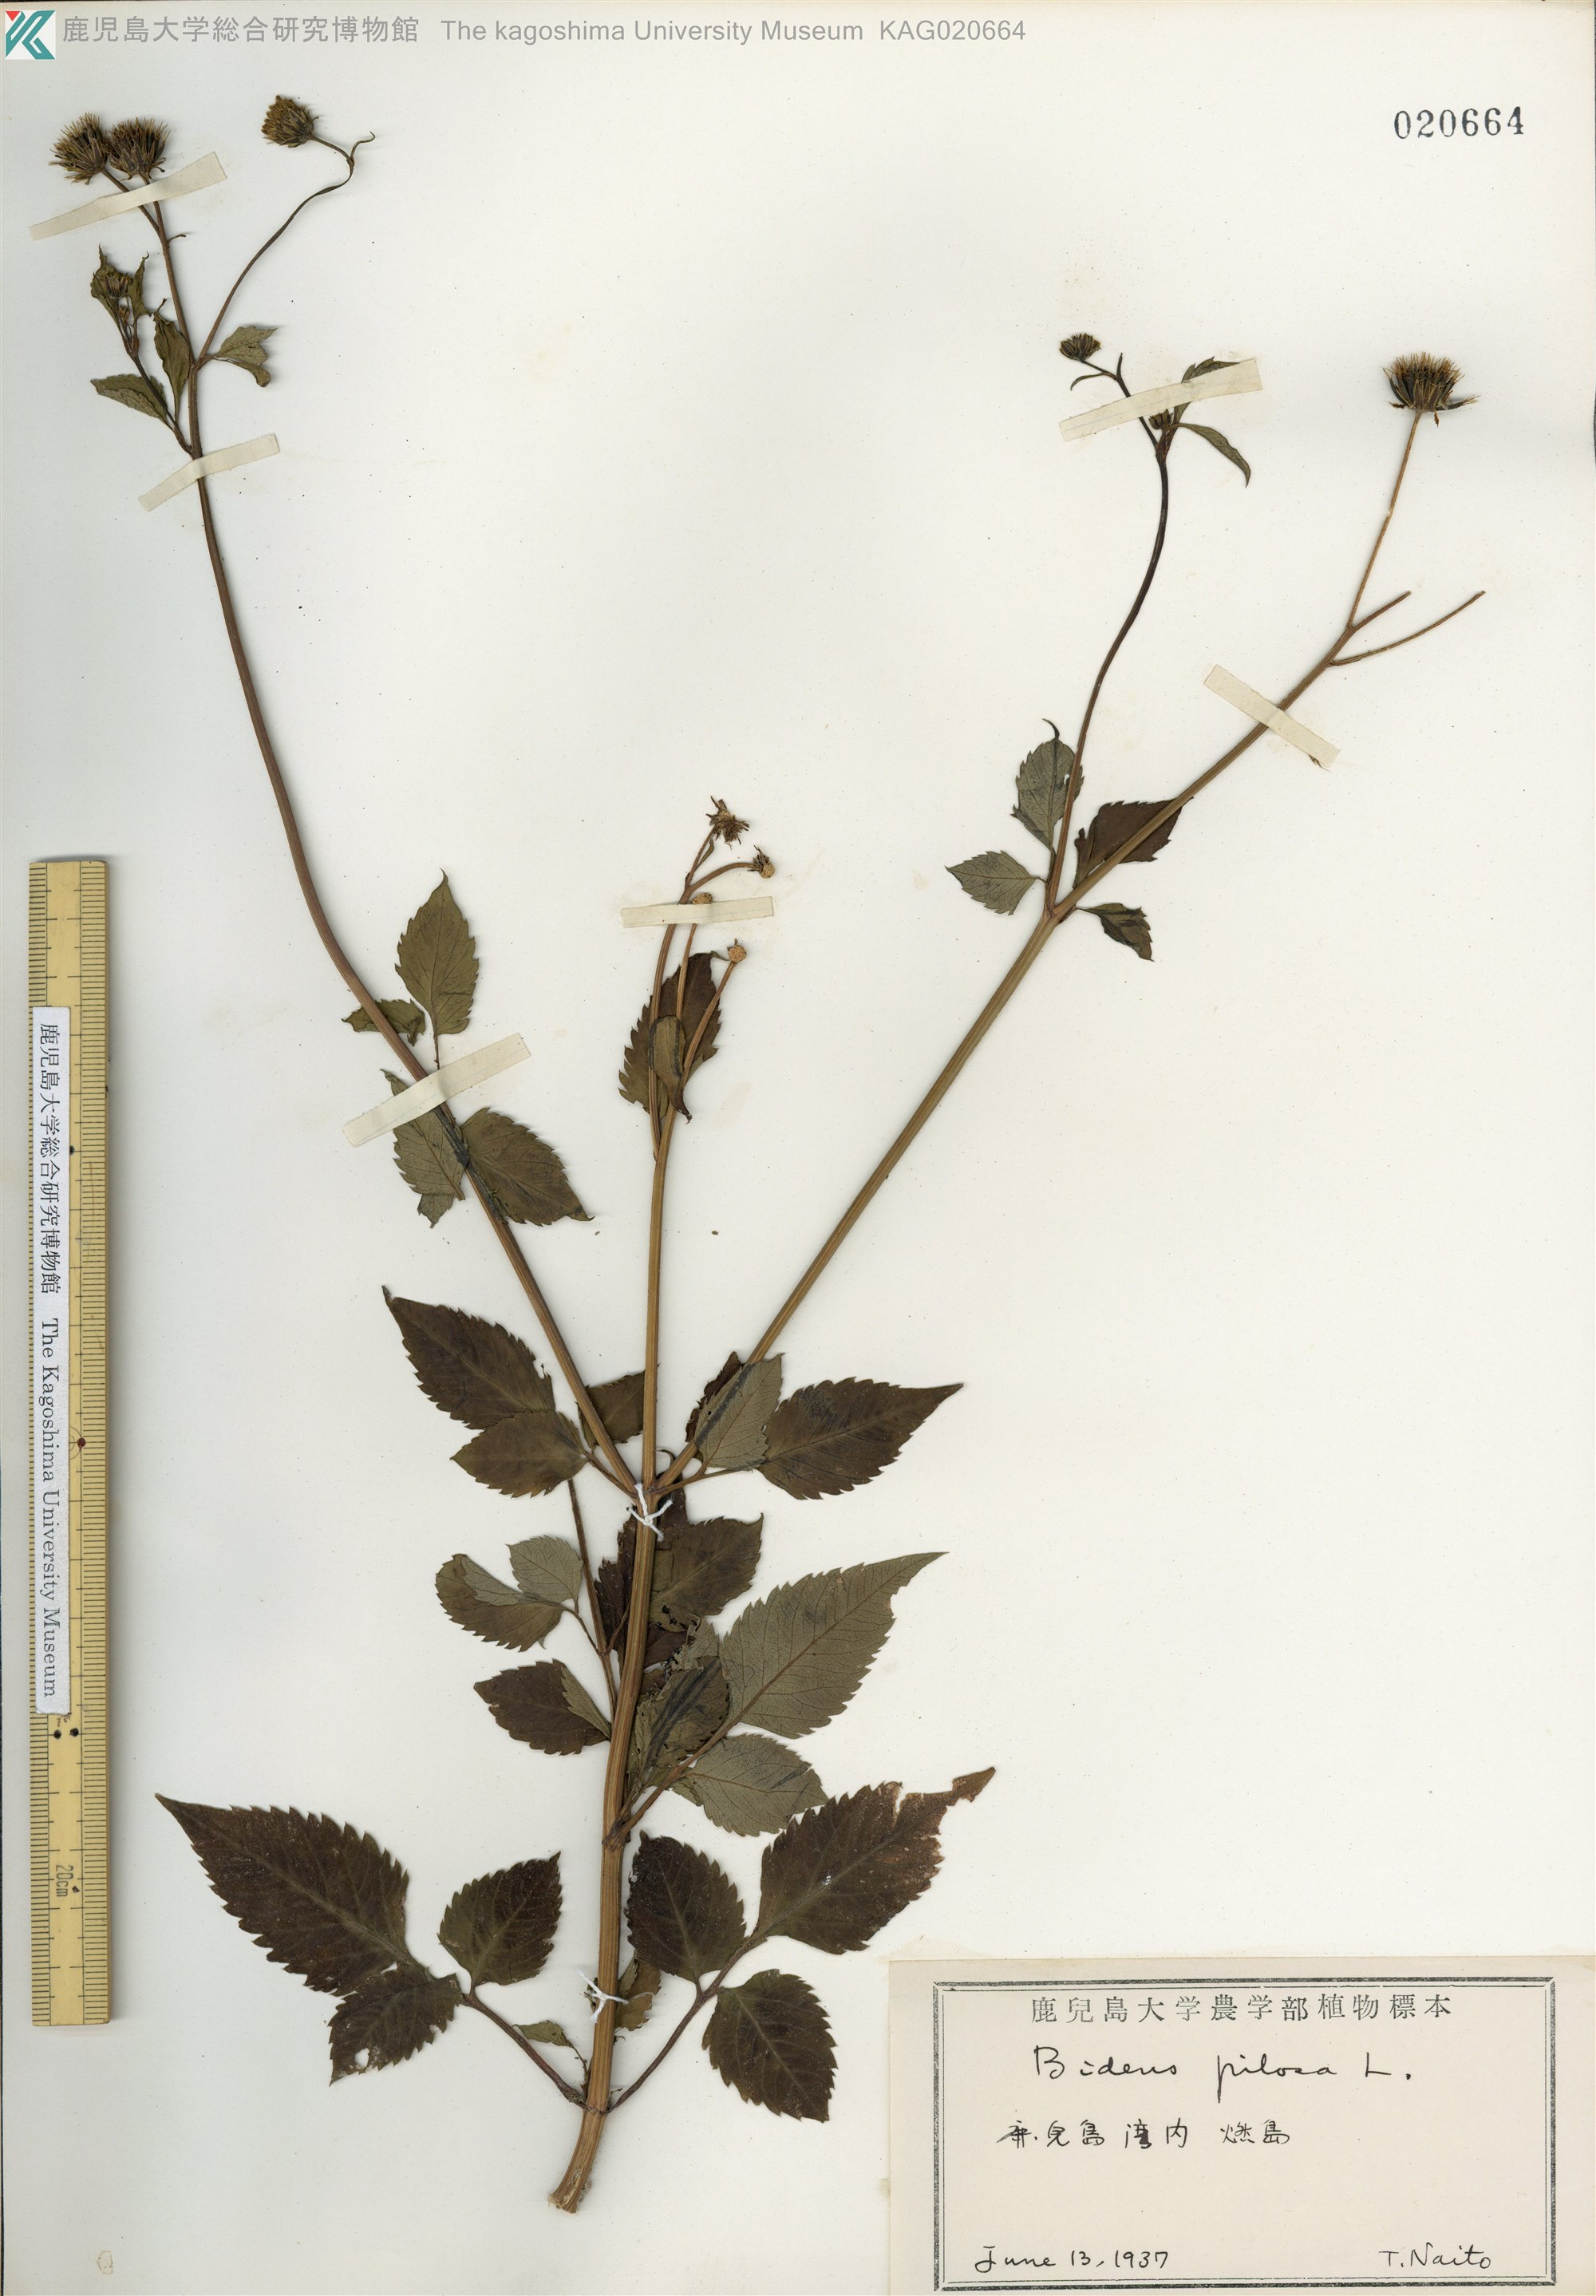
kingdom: Plantae
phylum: Tracheophyta
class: Magnoliopsida
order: Asterales
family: Asteraceae
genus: Bidens
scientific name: Bidens pilosa
